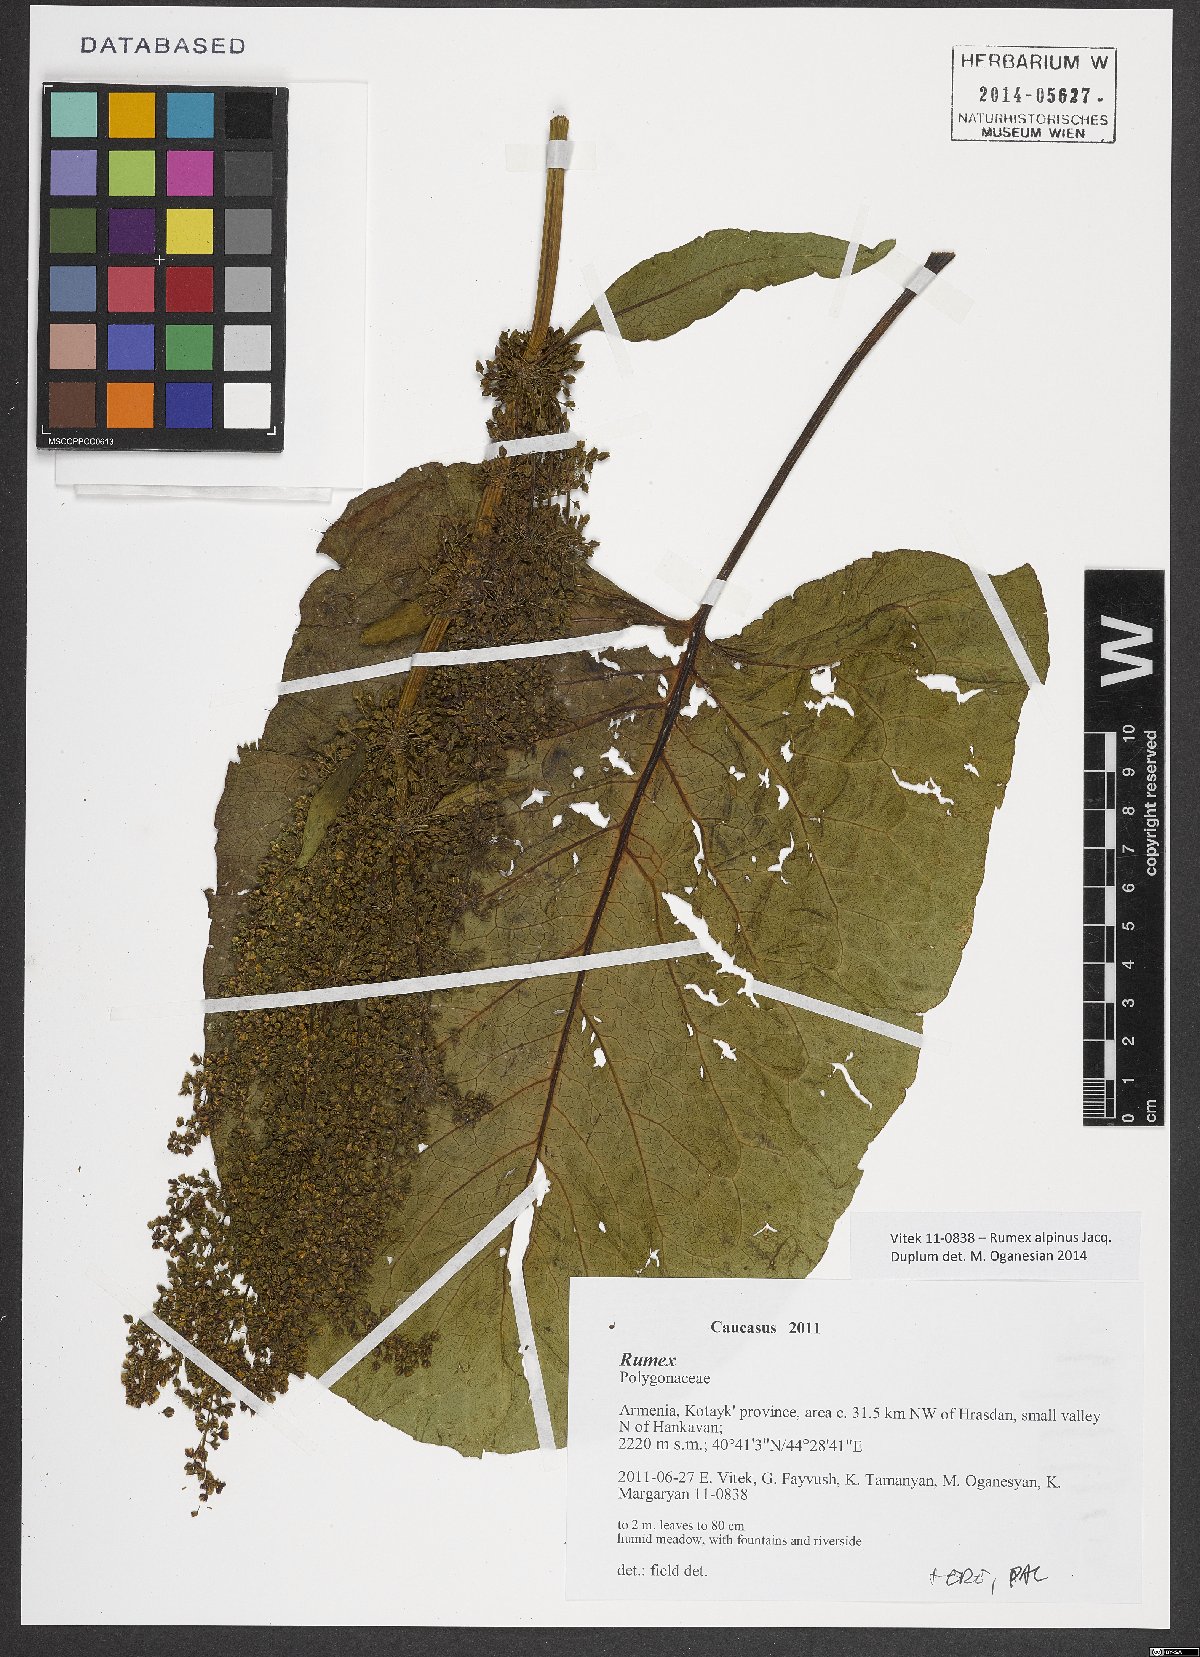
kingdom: Plantae
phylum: Tracheophyta
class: Magnoliopsida
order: Caryophyllales
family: Polygonaceae
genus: Rumex
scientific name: Rumex alpinus
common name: Alpine dock
